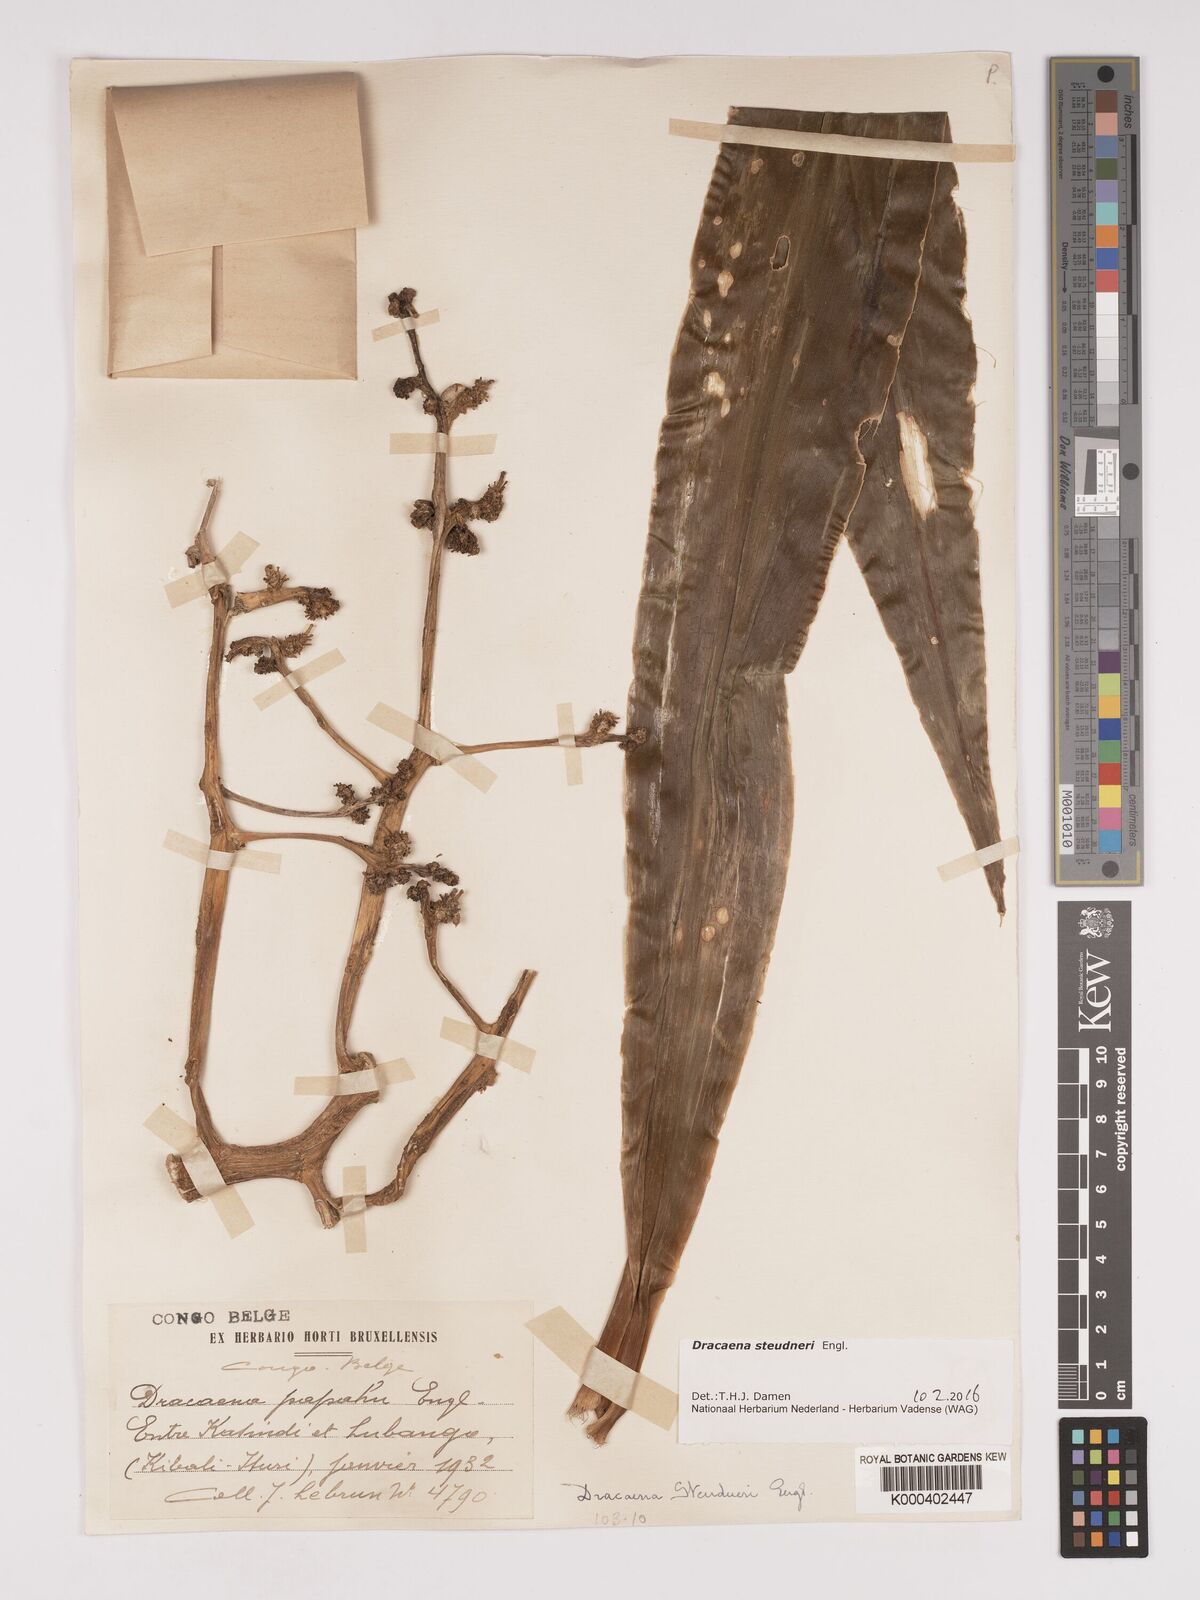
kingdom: Plantae
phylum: Tracheophyta
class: Liliopsida
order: Asparagales
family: Asparagaceae
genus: Dracaena
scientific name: Dracaena steudneri
